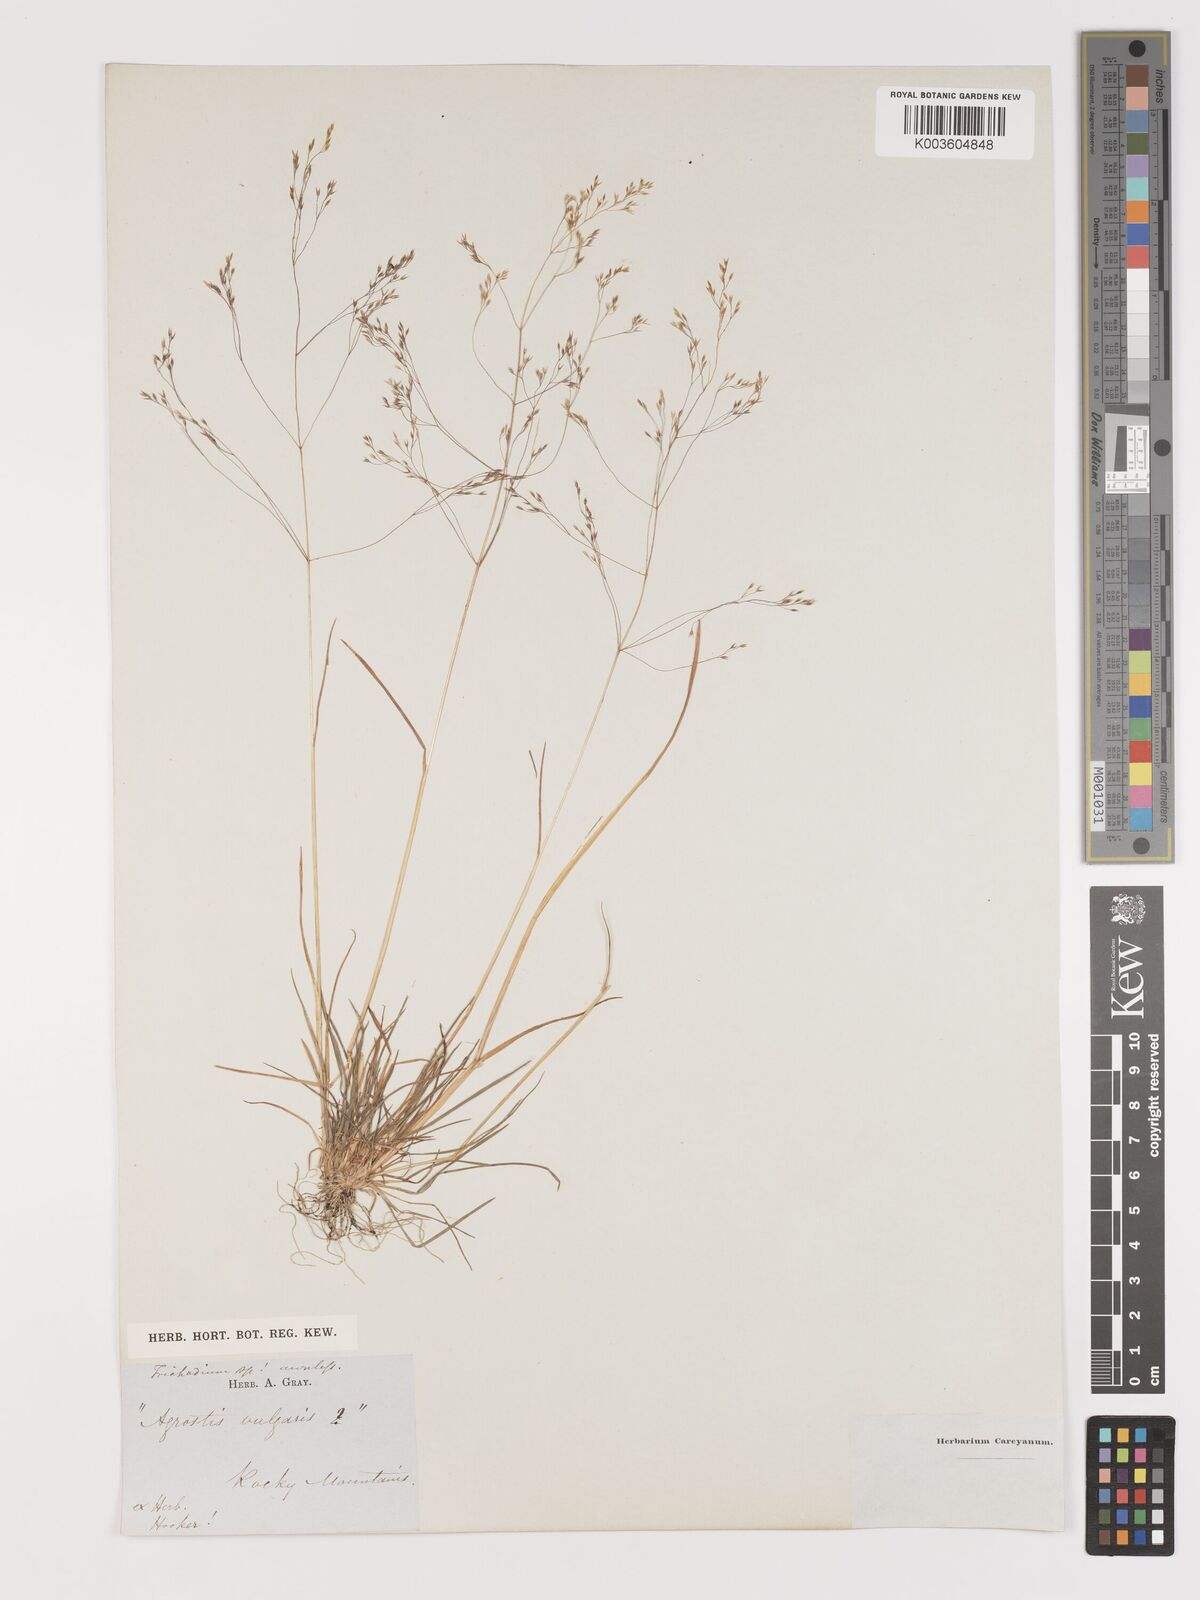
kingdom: Plantae
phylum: Tracheophyta
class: Liliopsida
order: Poales
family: Poaceae
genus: Agrostis
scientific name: Agrostis
